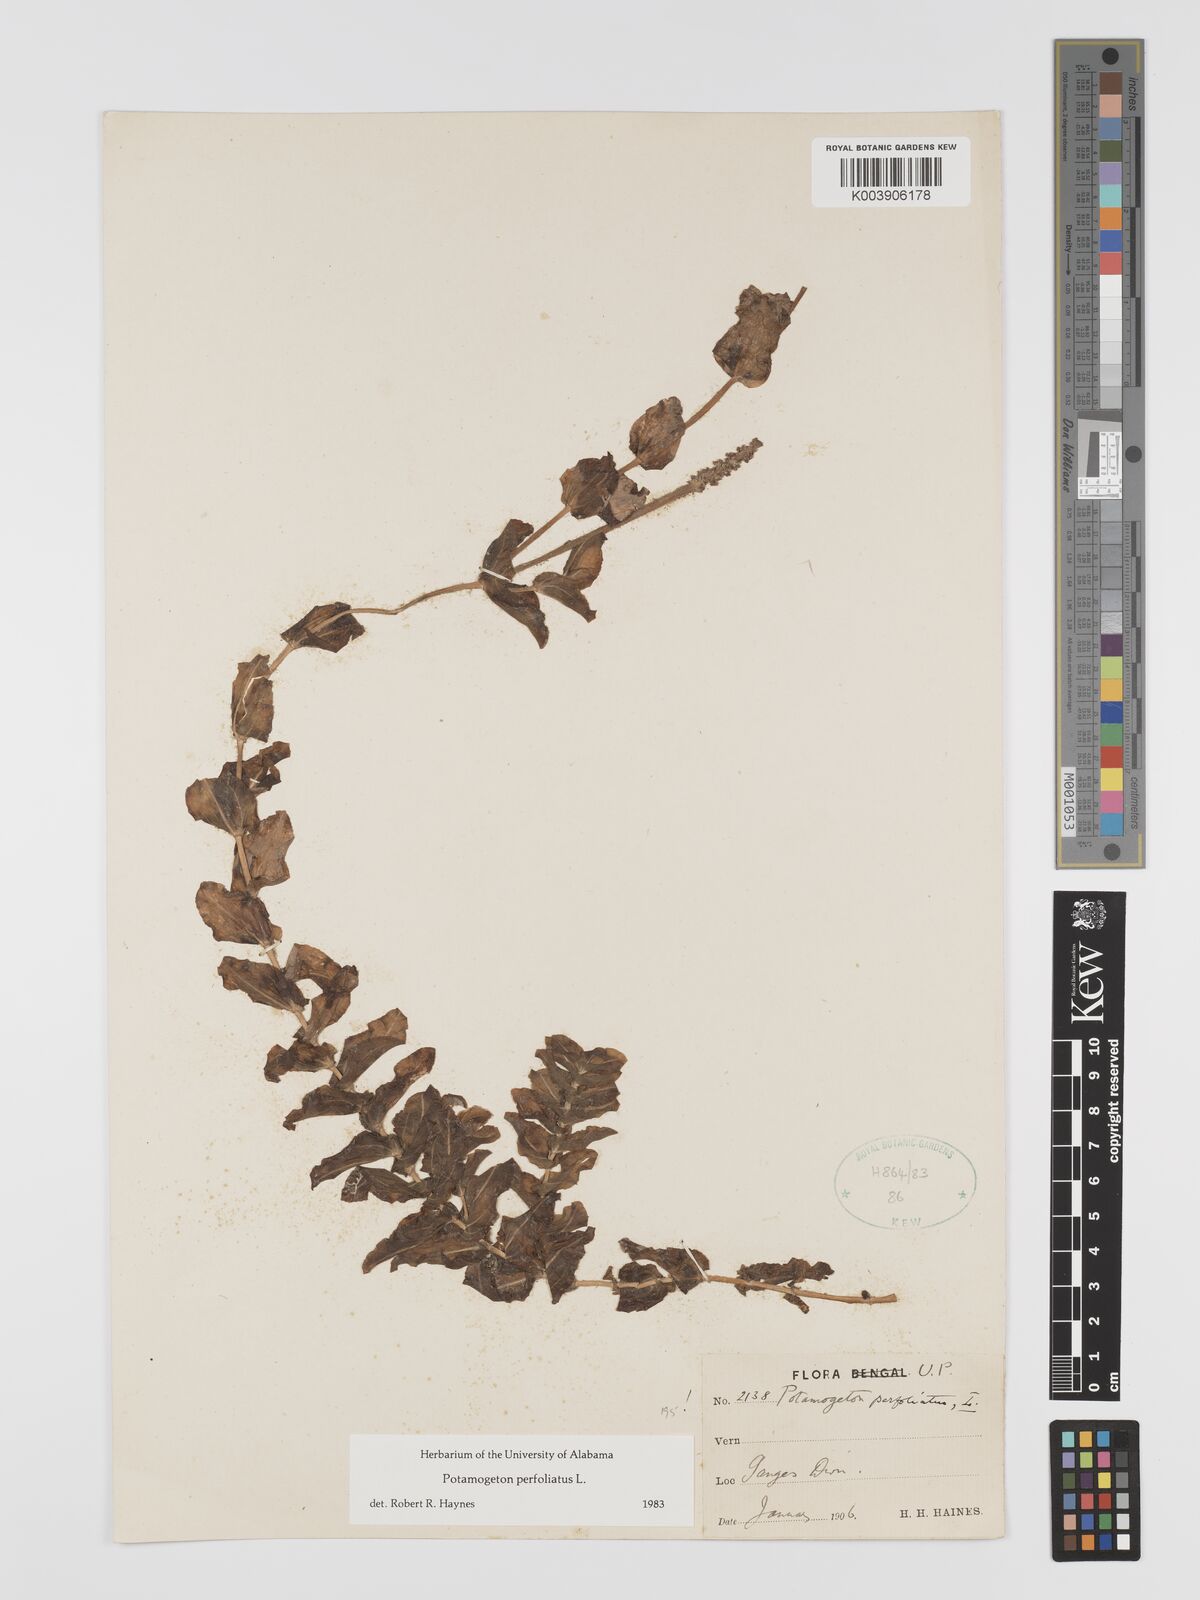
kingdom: Plantae
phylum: Tracheophyta
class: Liliopsida
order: Alismatales
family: Potamogetonaceae
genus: Potamogeton
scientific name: Potamogeton perfoliatus
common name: Perfoliate pondweed
